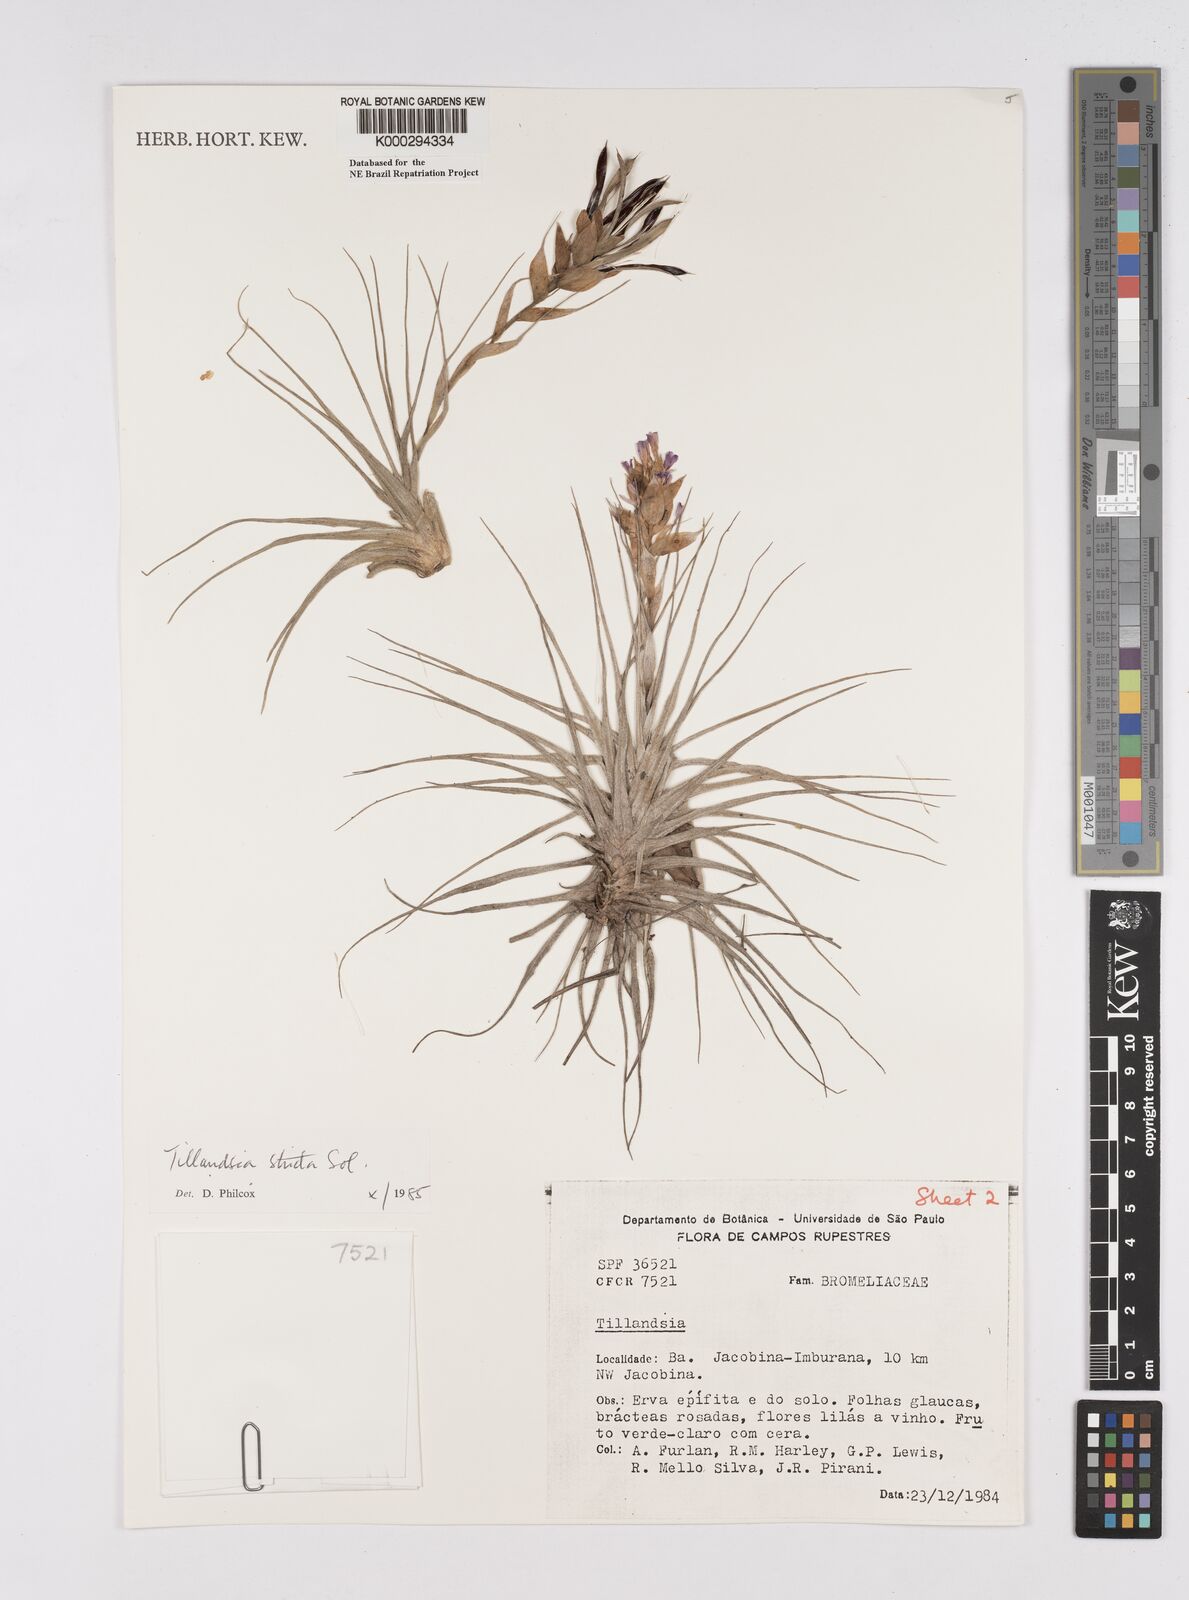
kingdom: Plantae
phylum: Tracheophyta
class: Liliopsida
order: Poales
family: Bromeliaceae
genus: Tillandsia
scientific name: Tillandsia
